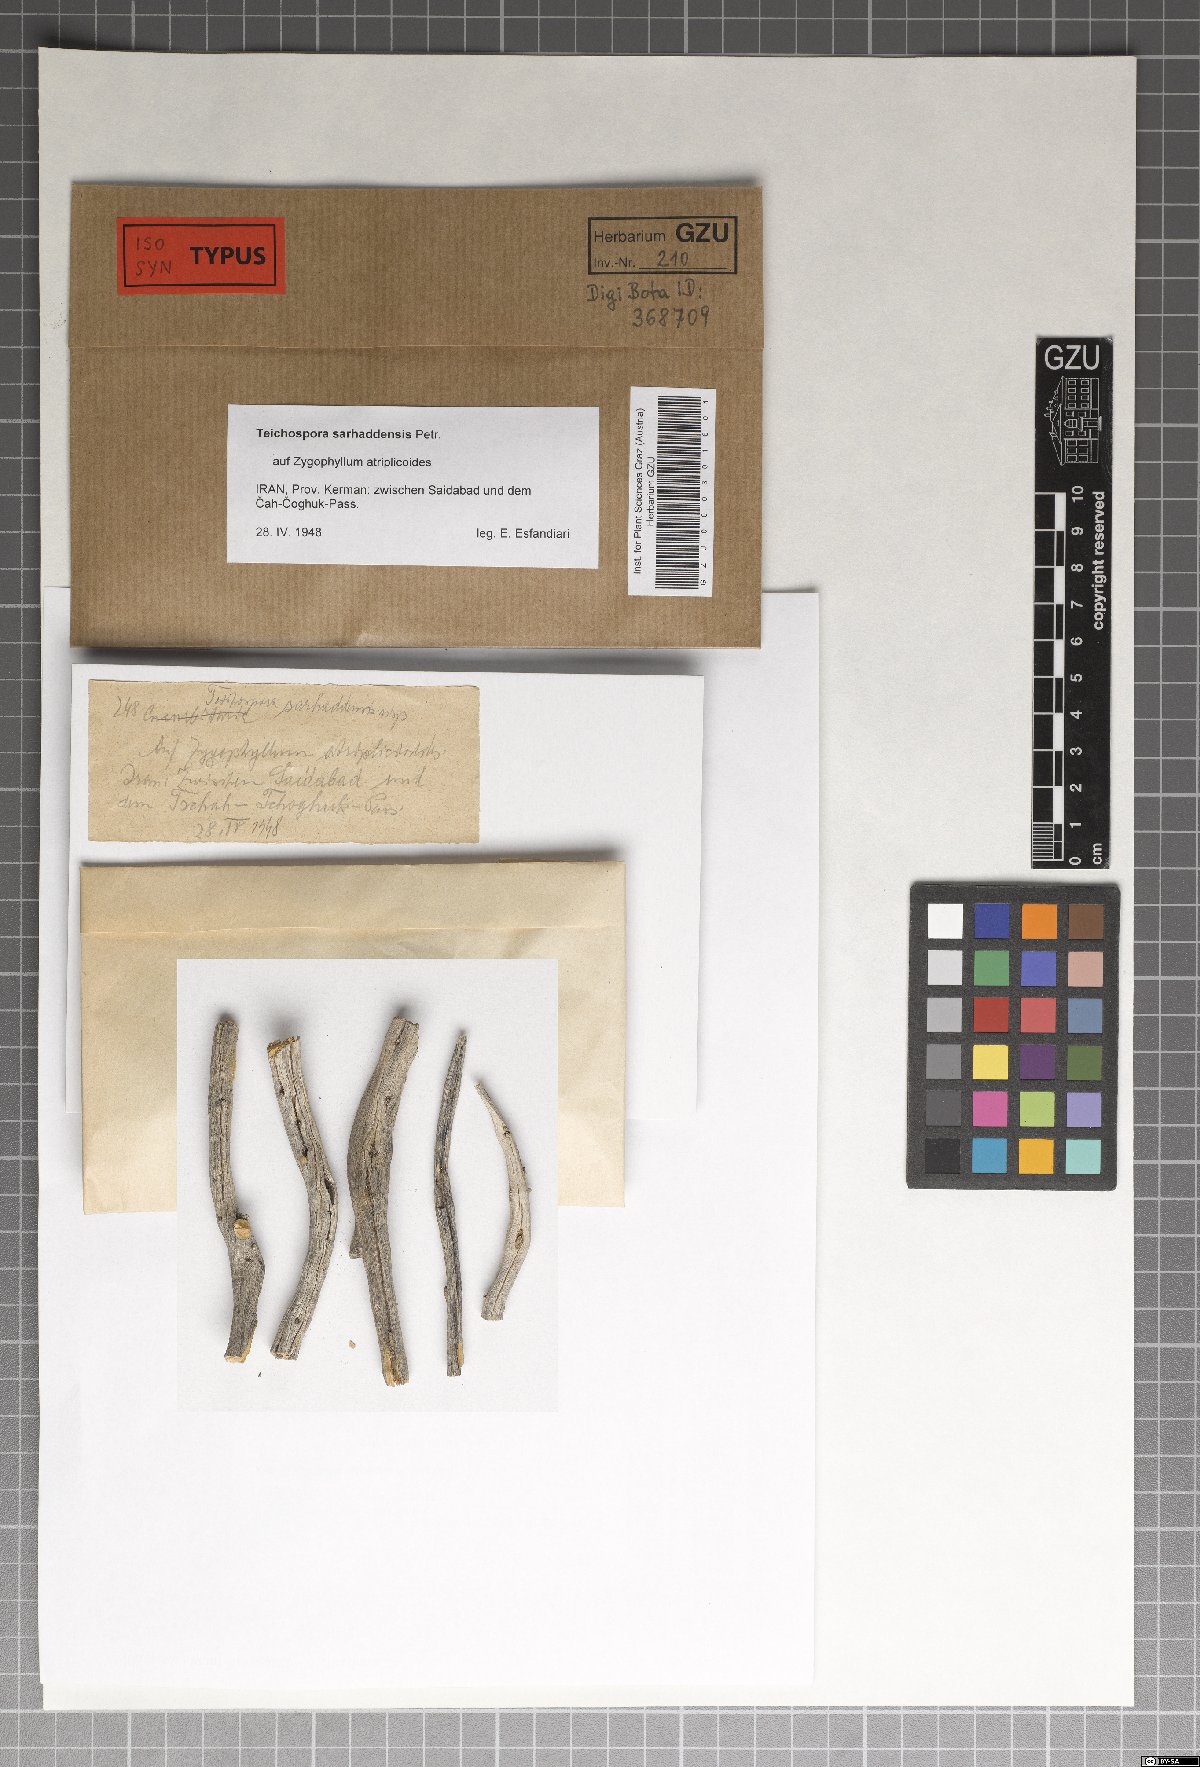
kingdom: Fungi
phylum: Ascomycota
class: Sordariomycetes
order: Amphisphaeriales
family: Sporocadaceae
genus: Strickeria
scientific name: Strickeria sarhaddensis
